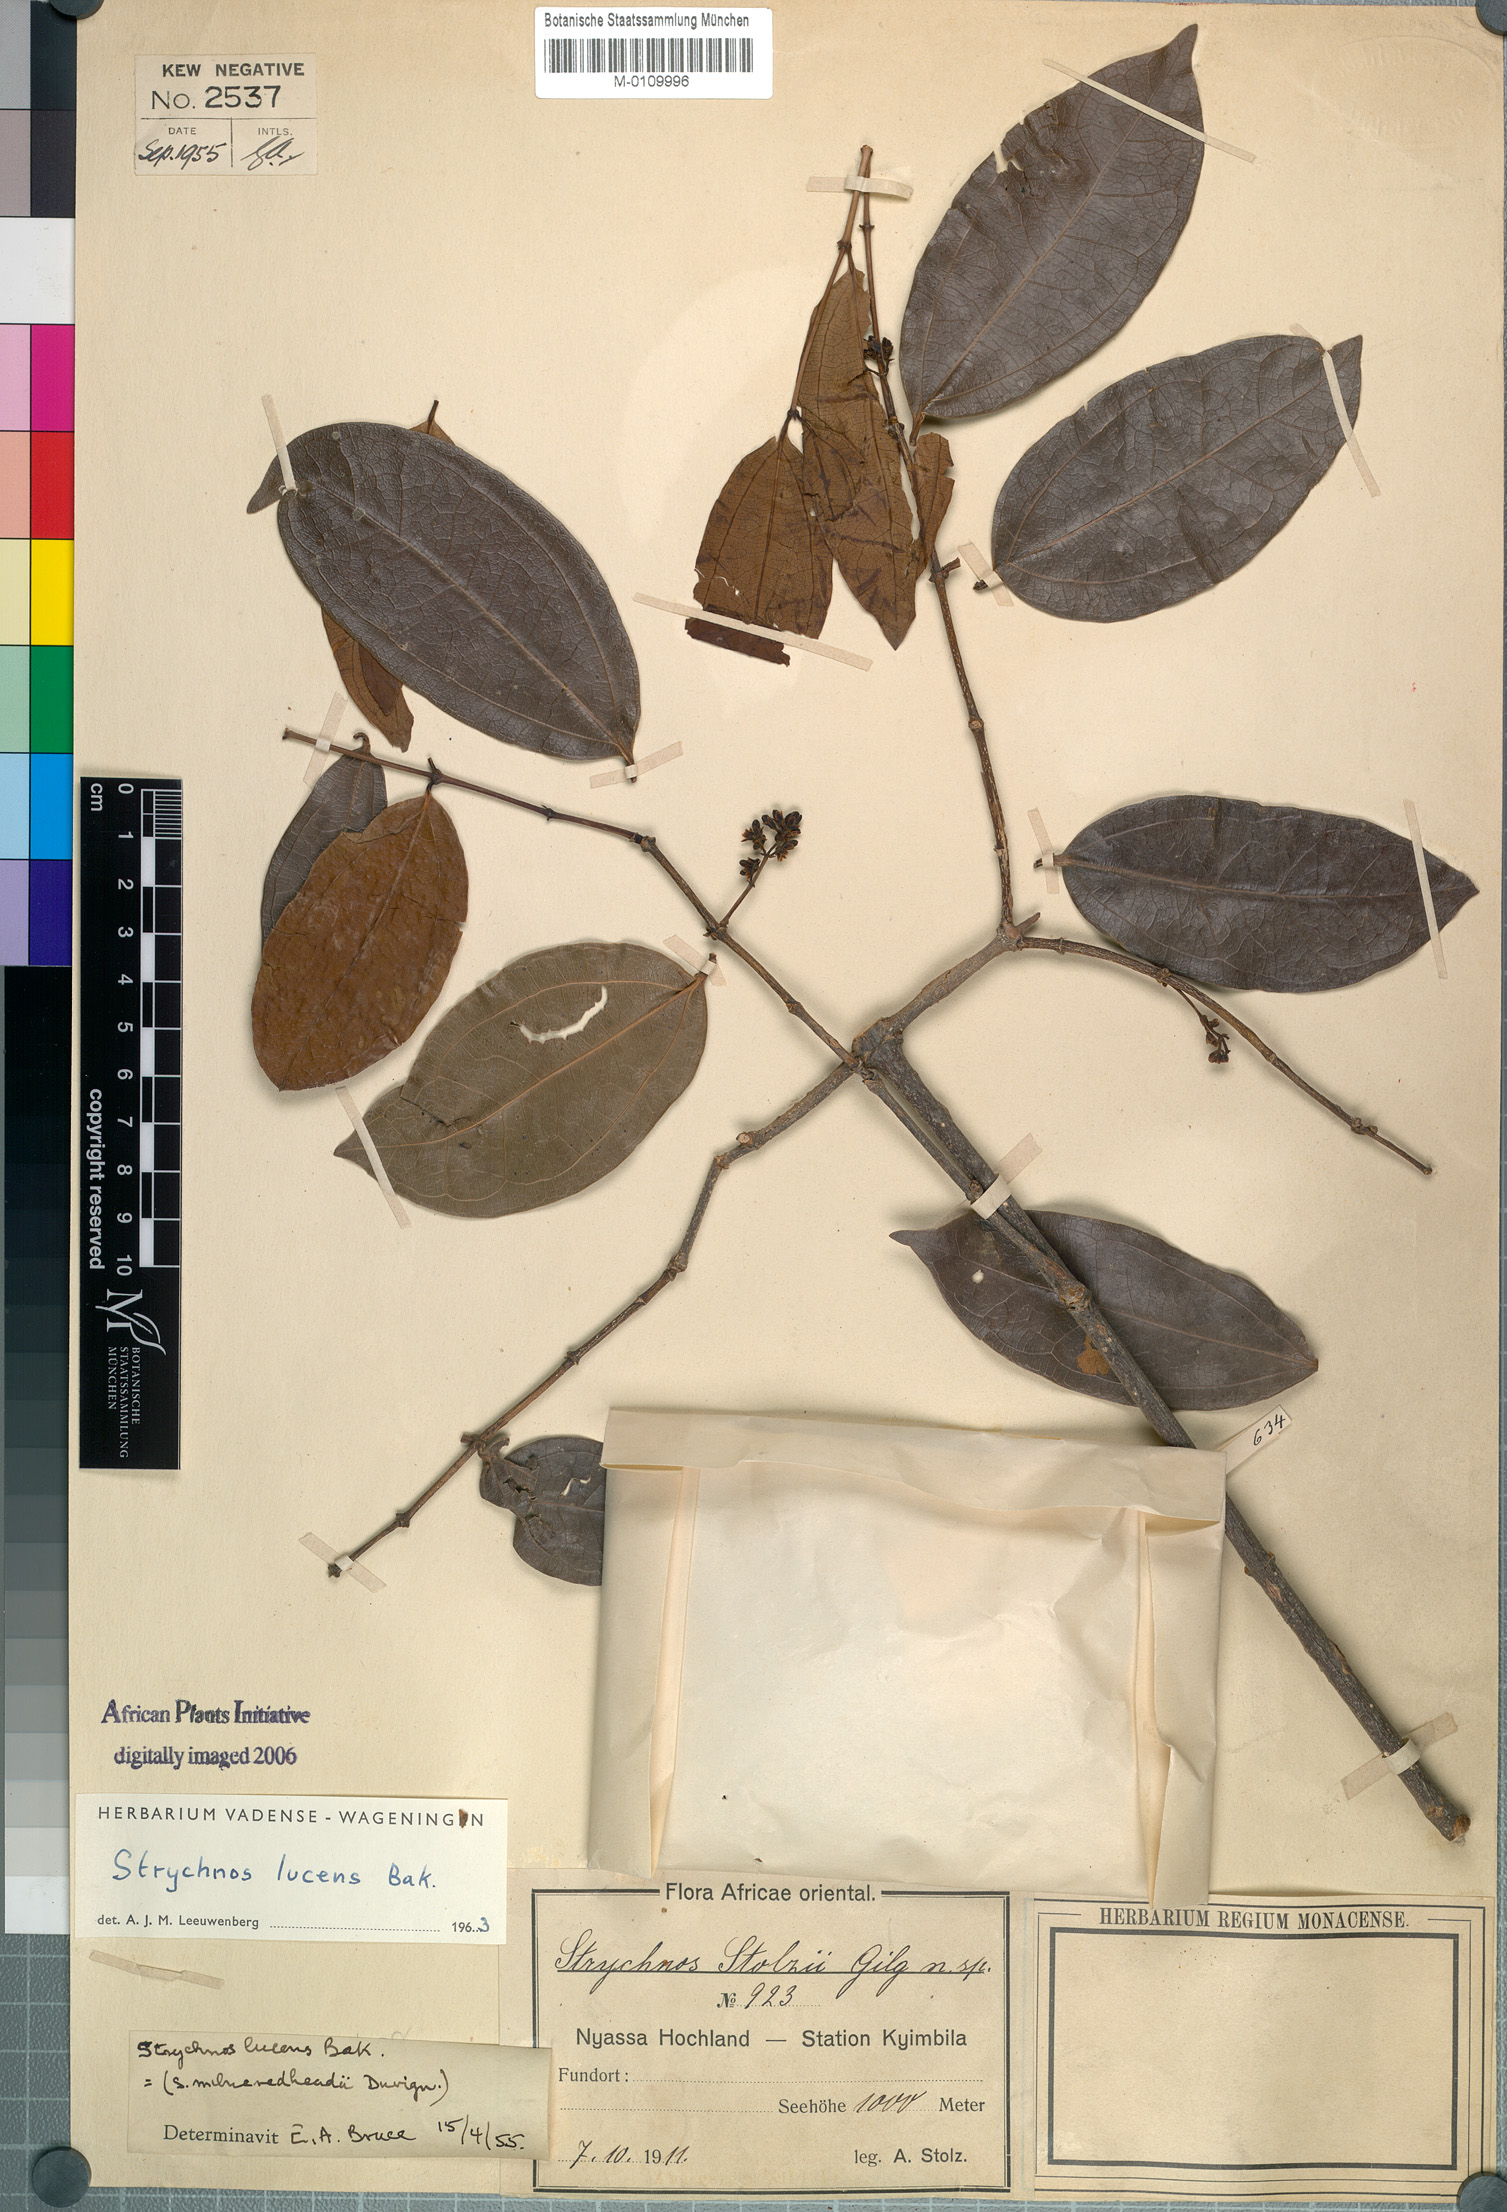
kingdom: Plantae
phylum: Tracheophyta
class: Magnoliopsida
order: Gentianales
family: Loganiaceae
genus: Strychnos
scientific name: Strychnos lucens
